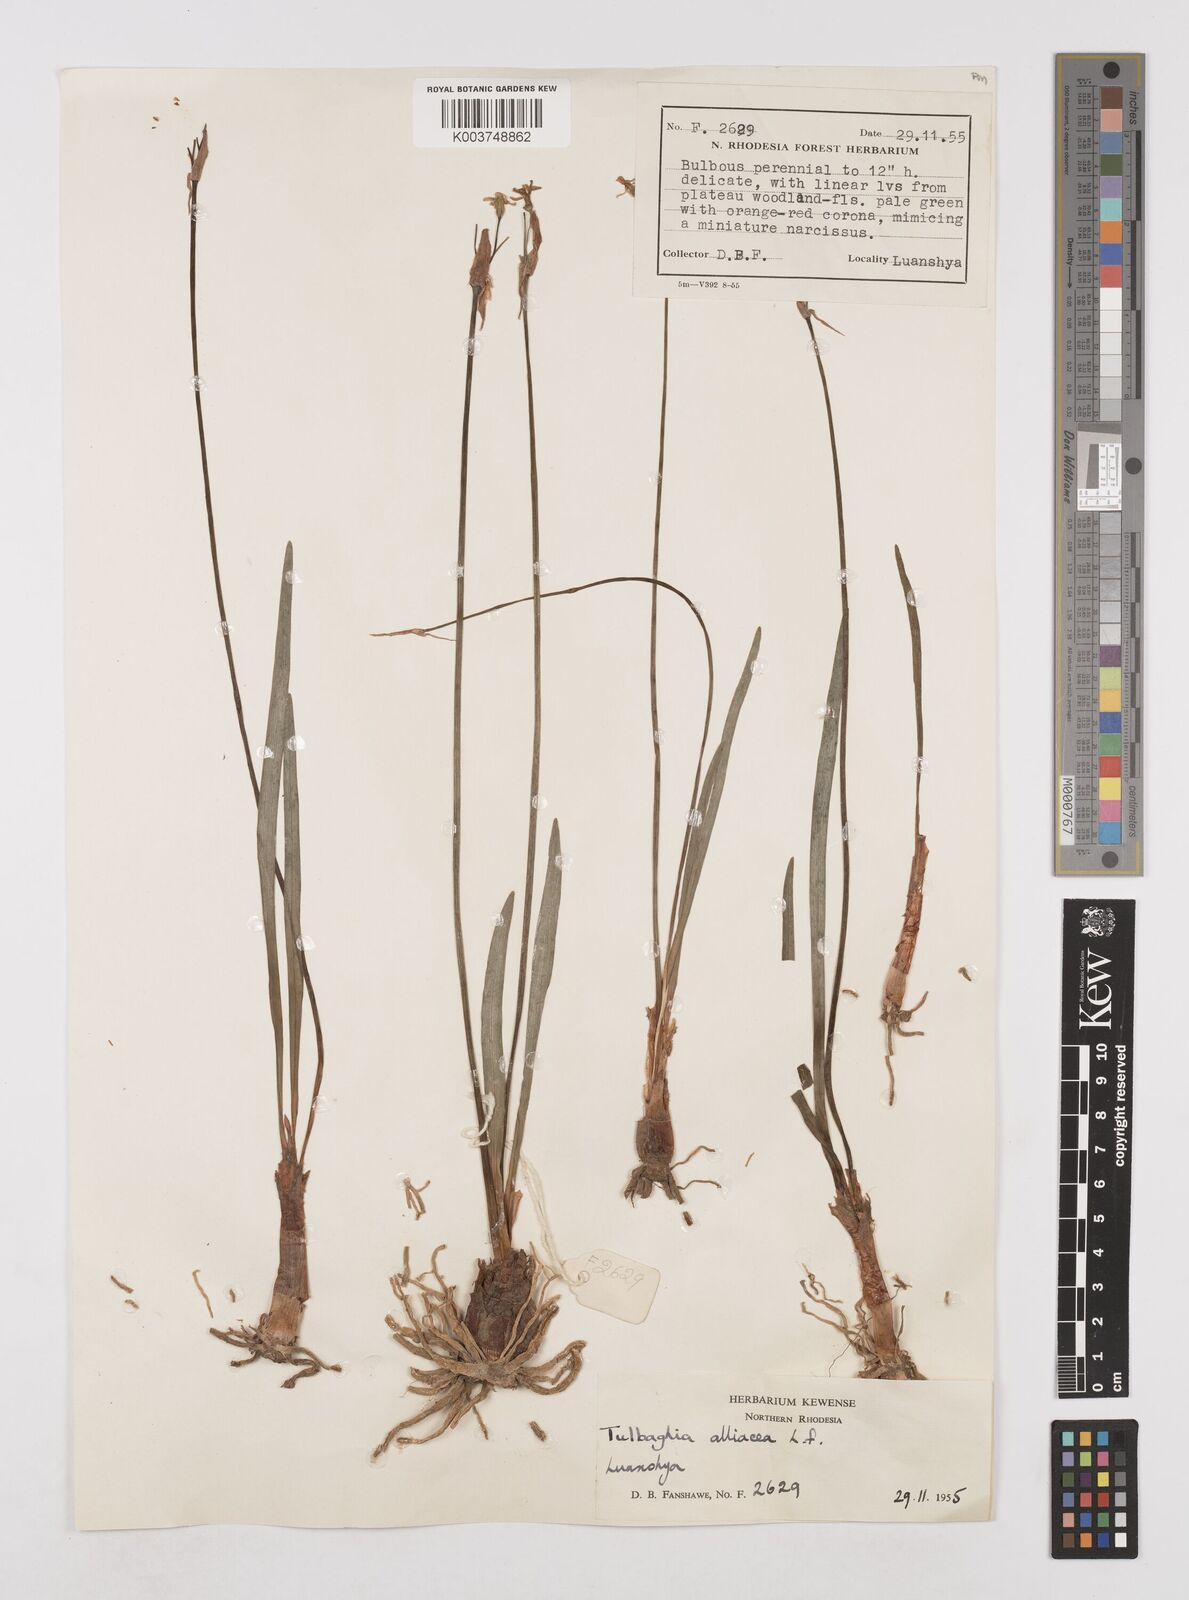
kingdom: Plantae
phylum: Tracheophyta
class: Liliopsida
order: Asparagales
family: Amaryllidaceae
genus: Tulbaghia
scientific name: Tulbaghia alliacea
